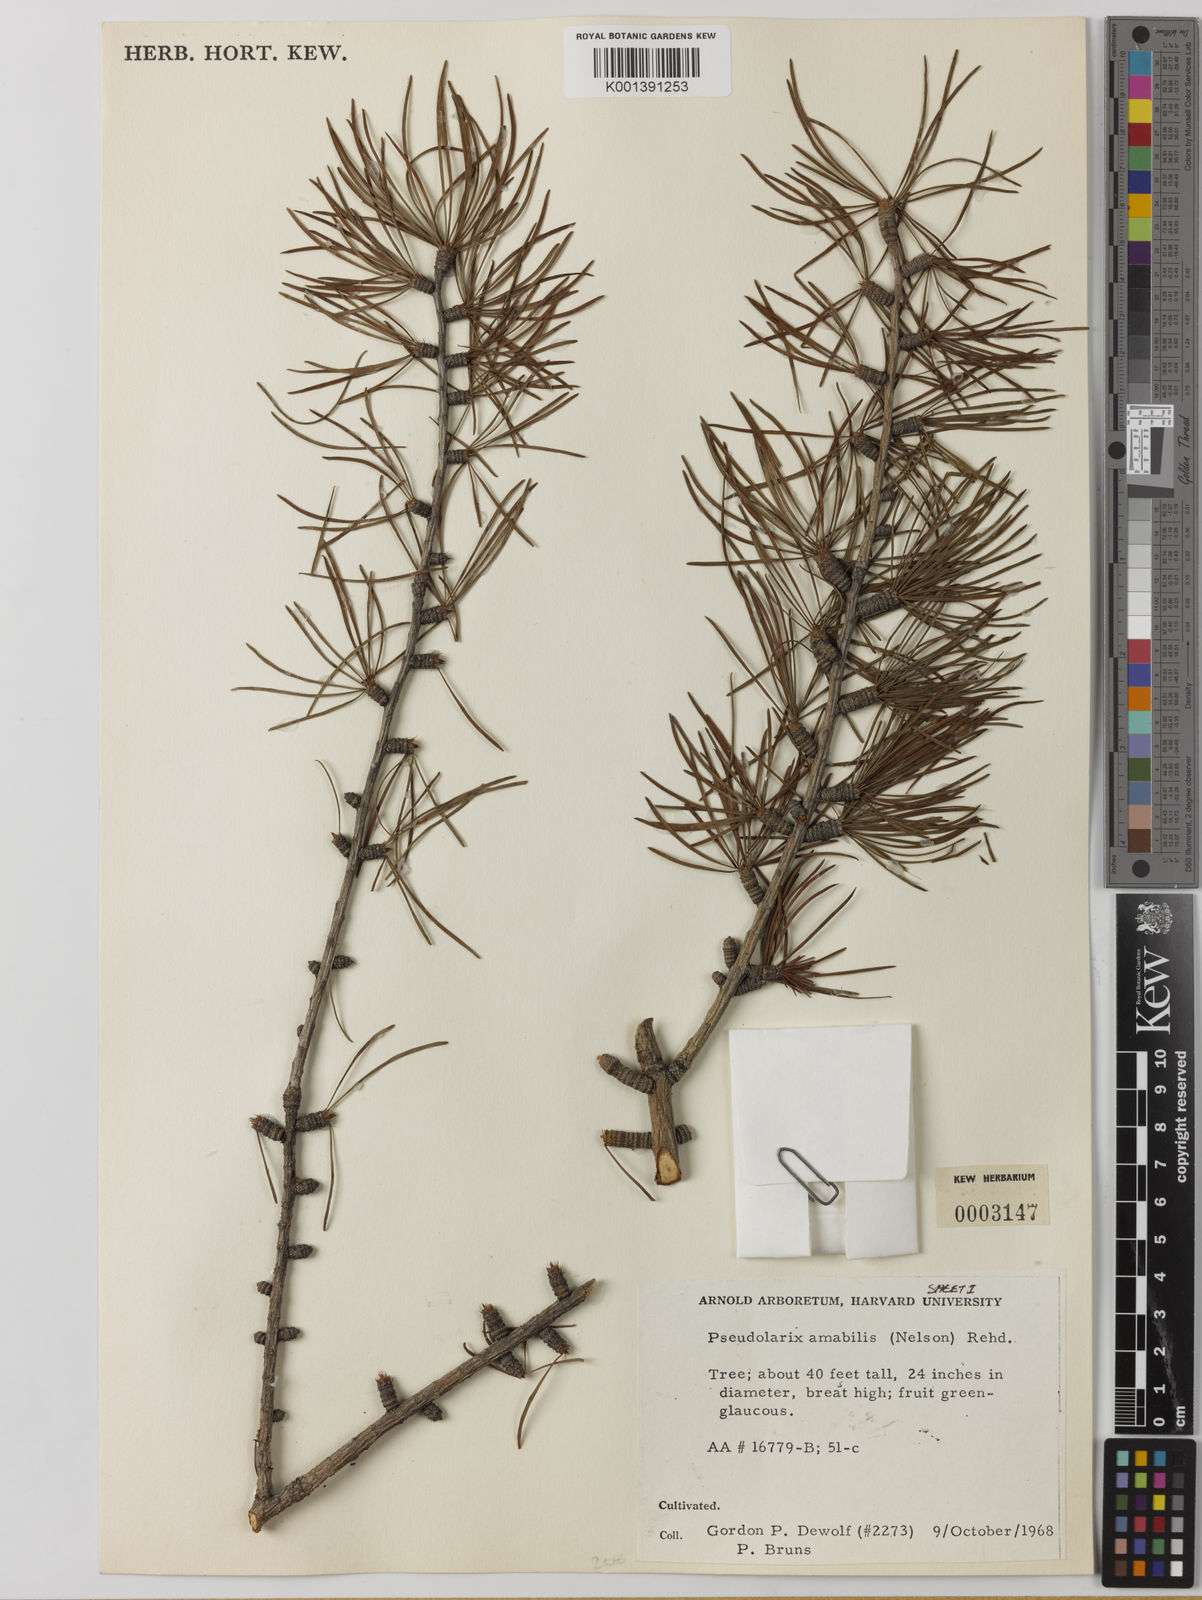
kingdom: Plantae
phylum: Tracheophyta
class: Pinopsida
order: Pinales
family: Pinaceae
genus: Pseudolarix
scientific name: Pseudolarix amabilis
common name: Chinese golden larch
